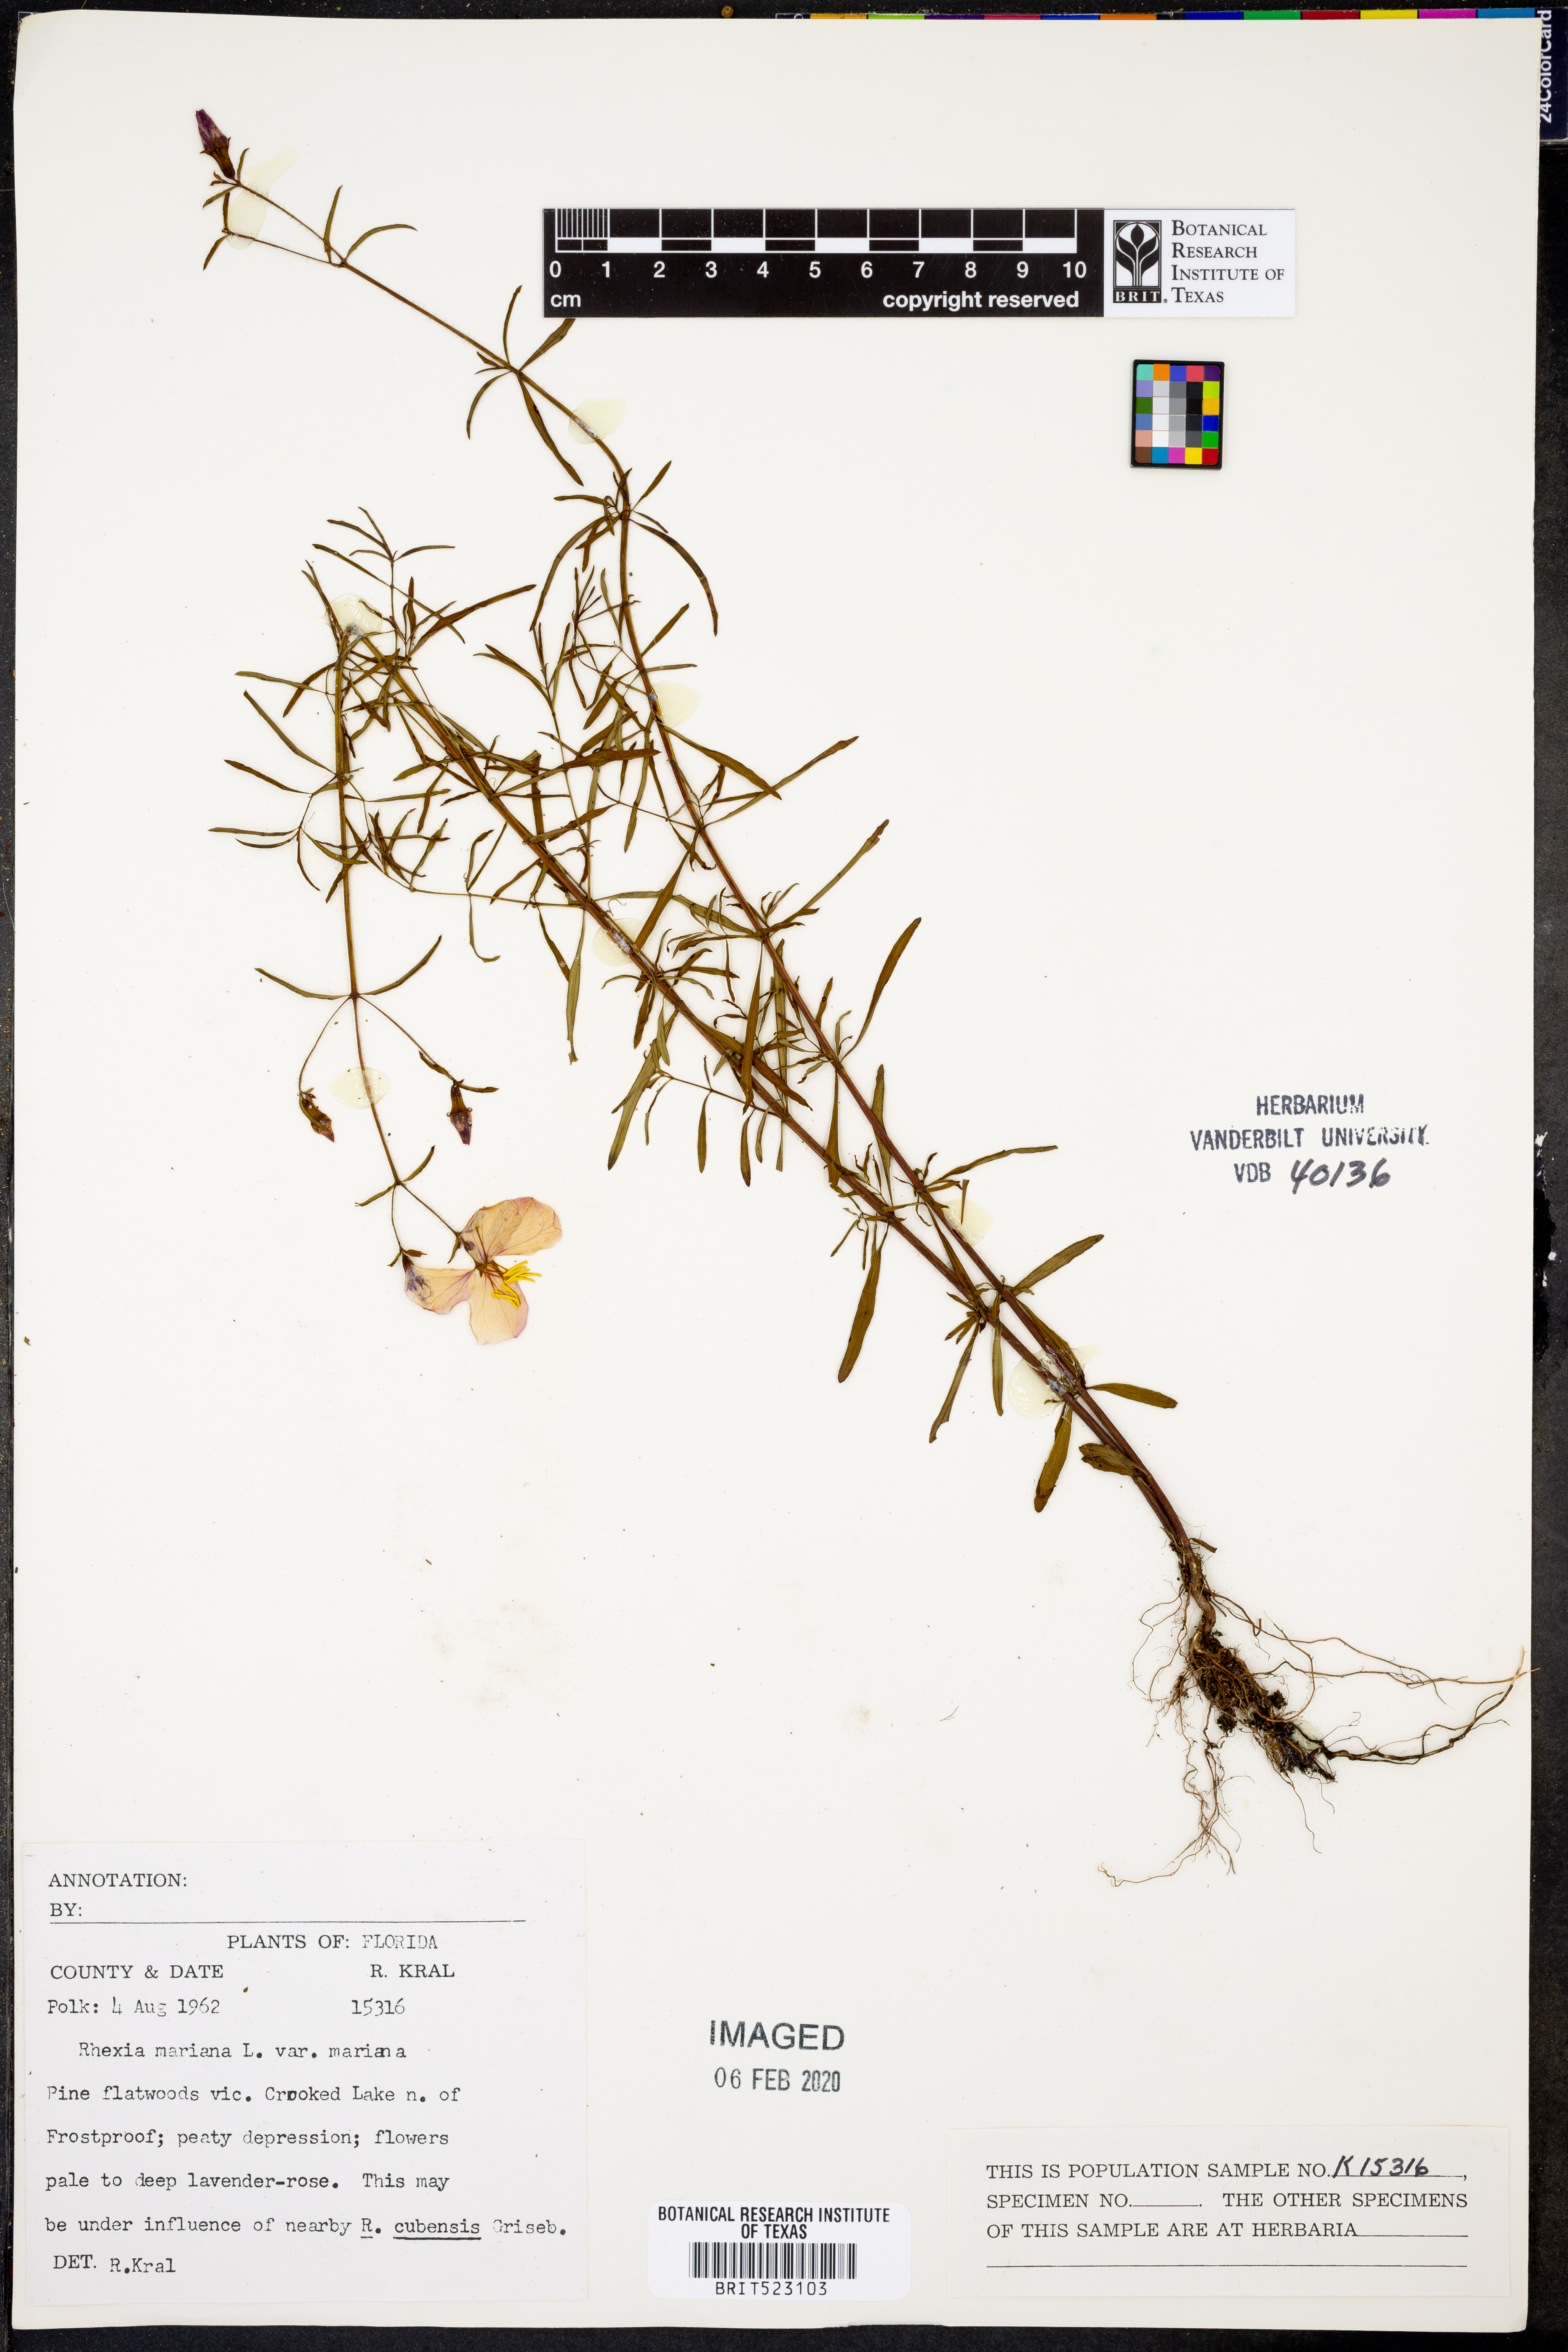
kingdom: Plantae
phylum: Tracheophyta
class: Magnoliopsida
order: Myrtales
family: Melastomataceae
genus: Rhexia
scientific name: Rhexia mariana
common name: Dull meadow-pitcher
